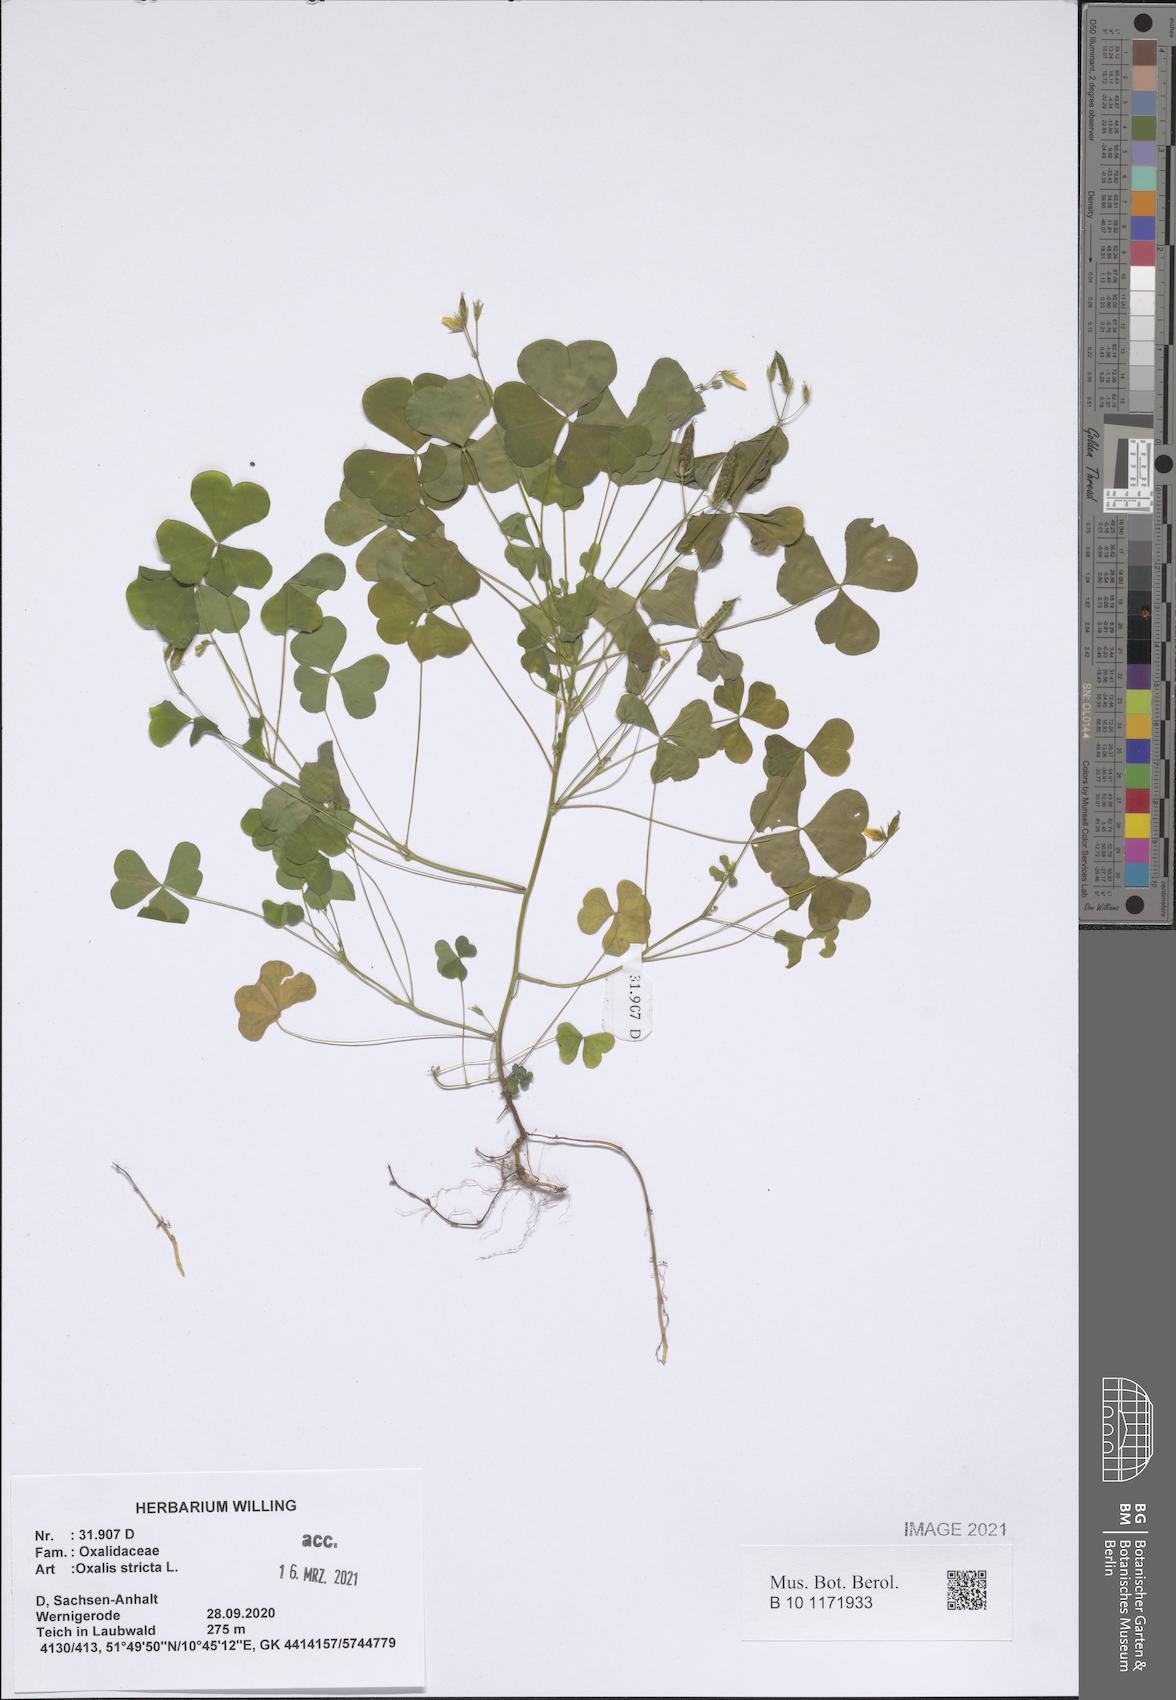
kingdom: Plantae
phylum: Tracheophyta
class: Magnoliopsida
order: Oxalidales
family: Oxalidaceae
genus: Oxalis
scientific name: Oxalis stricta
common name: Upright yellow-sorrel
